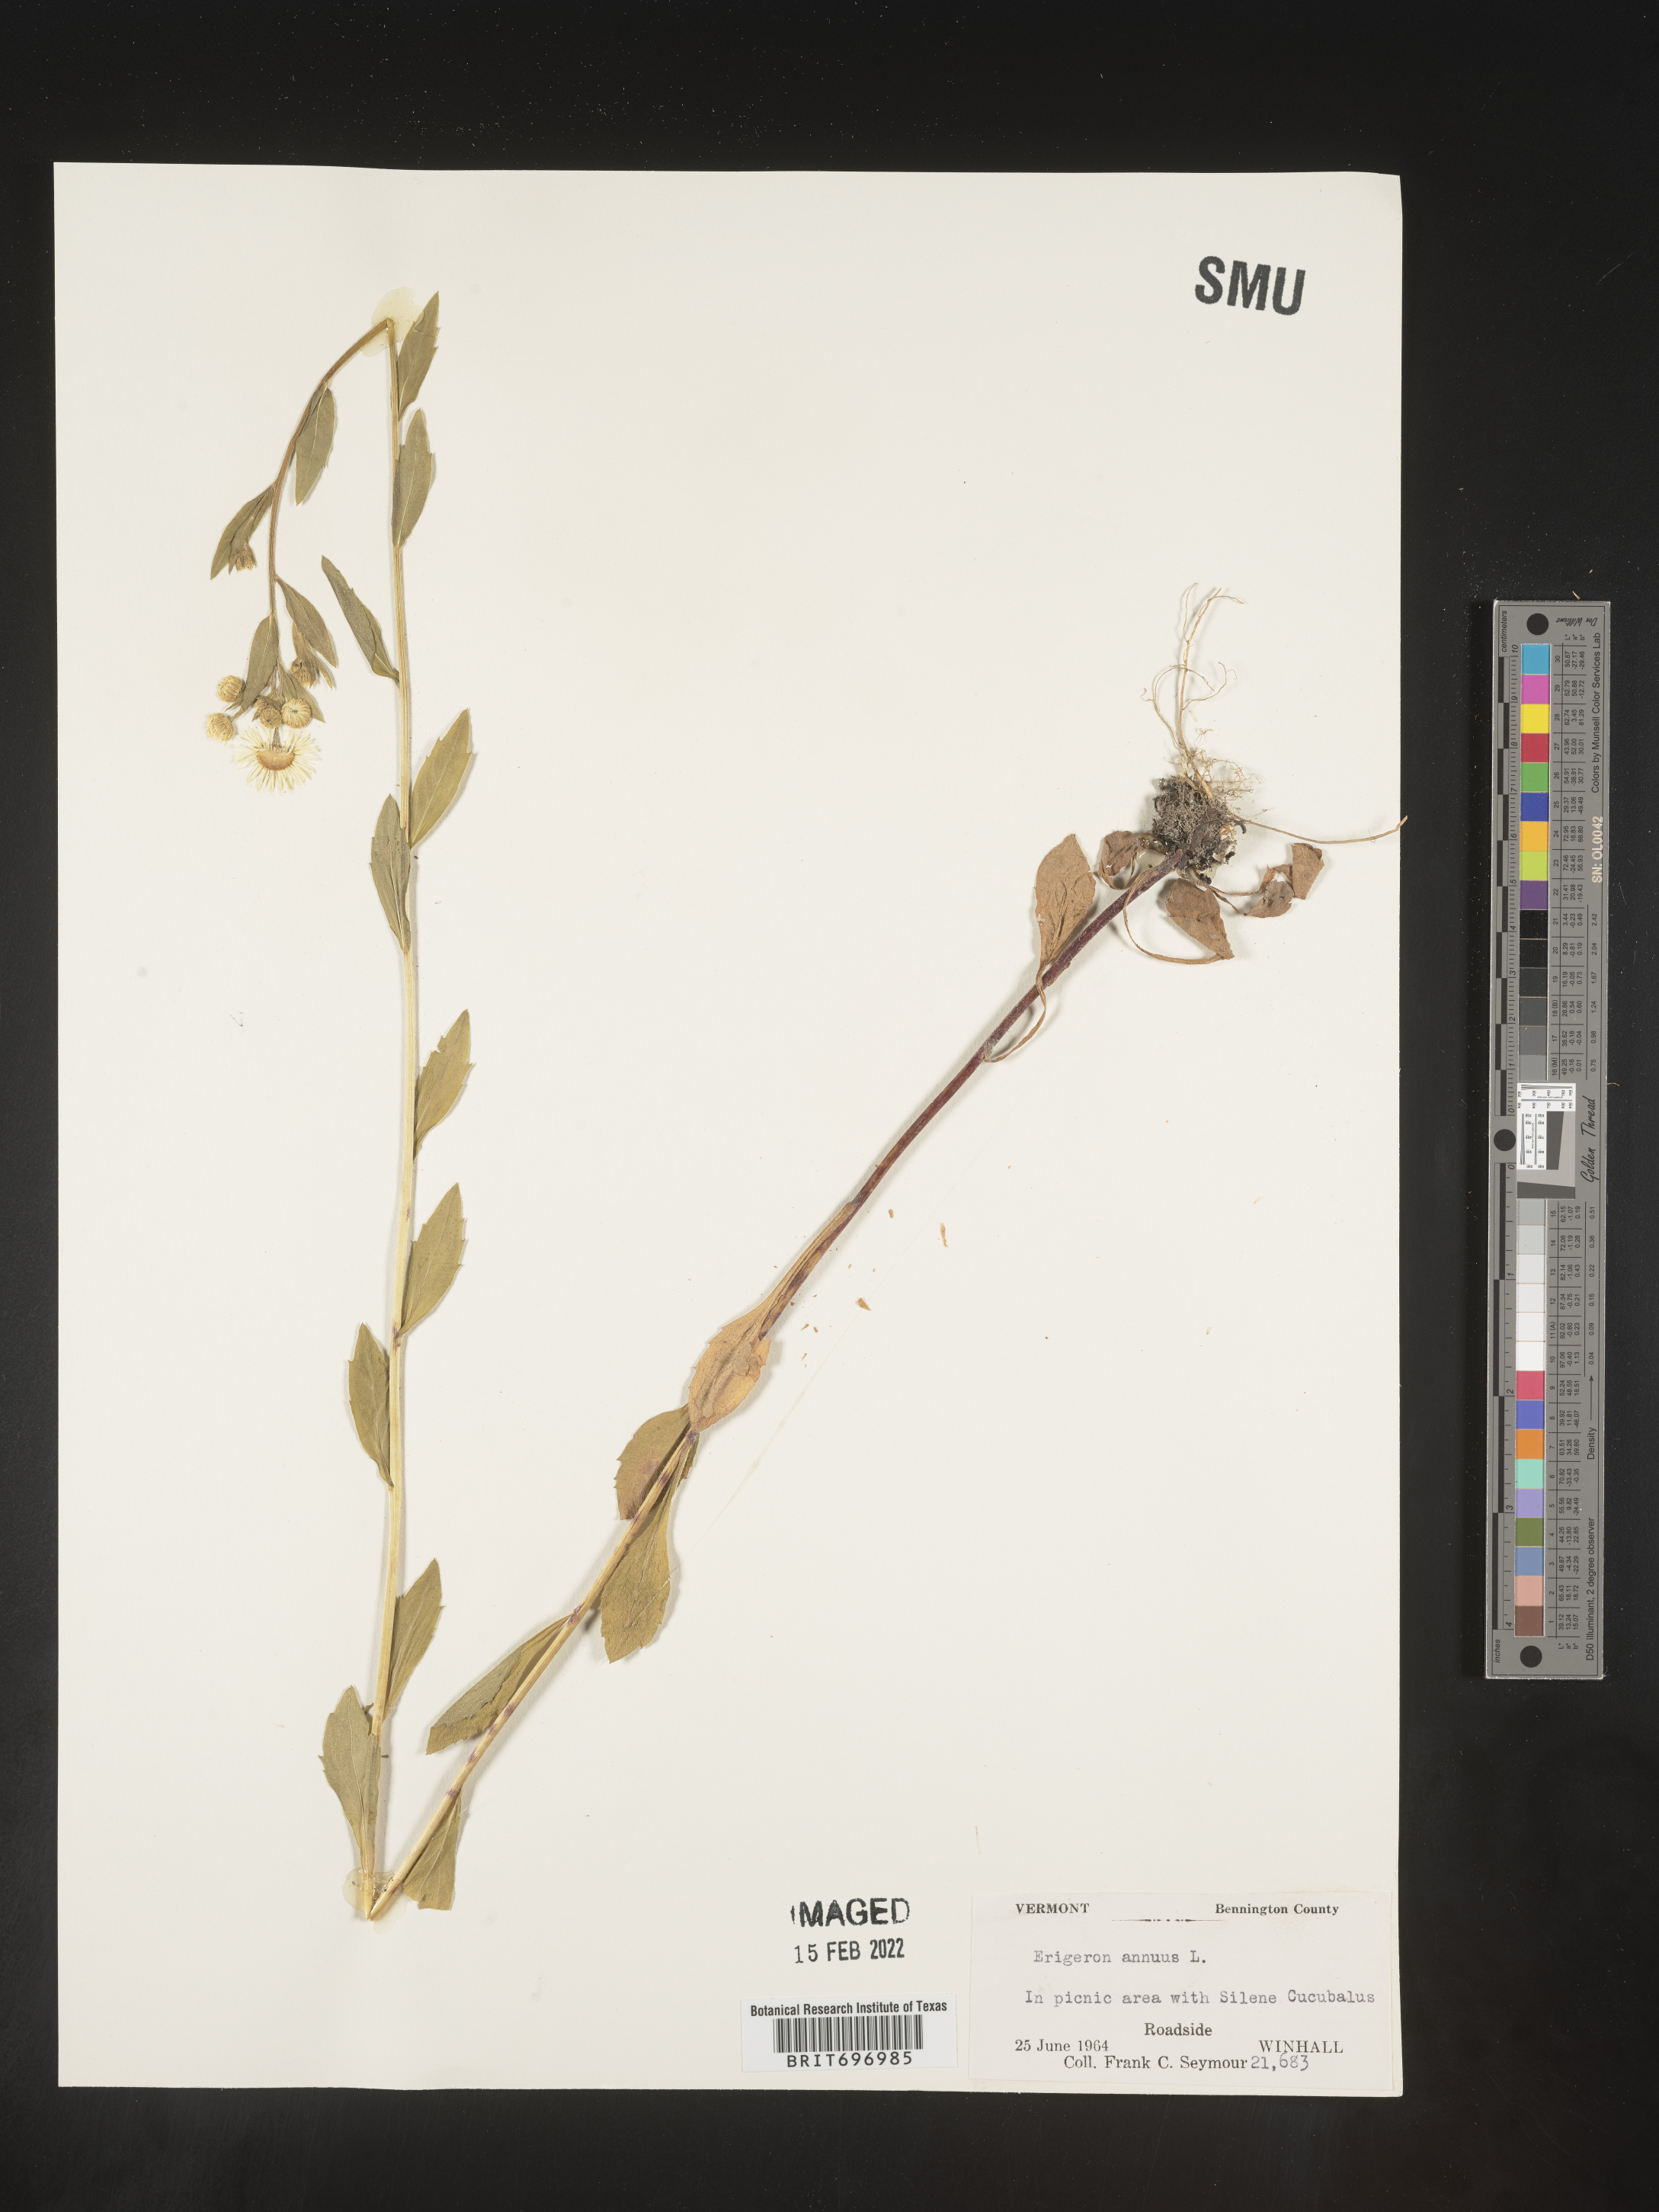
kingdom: Plantae
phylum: Tracheophyta
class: Magnoliopsida
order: Asterales
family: Asteraceae
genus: Erigeron
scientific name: Erigeron annuus
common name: Tall fleabane
